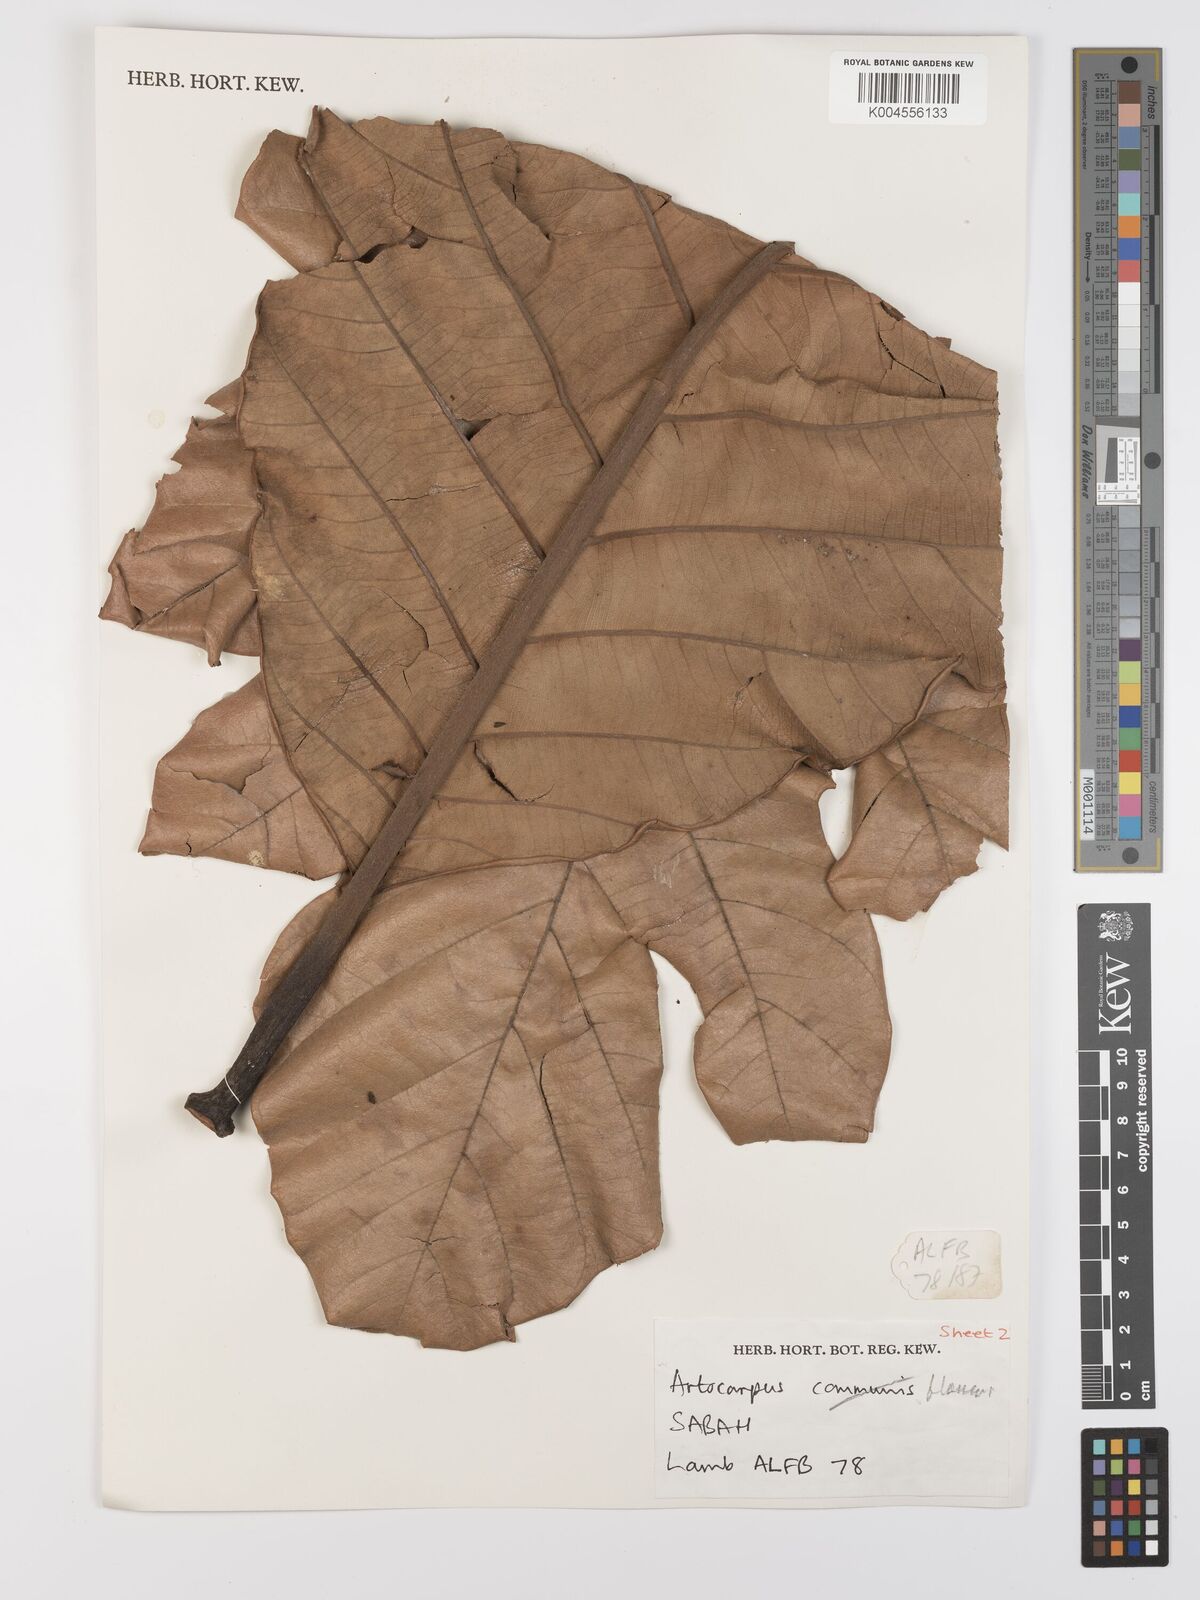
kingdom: Plantae
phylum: Tracheophyta
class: Magnoliopsida
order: Rosales
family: Moraceae
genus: Artocarpus
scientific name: Artocarpus altilis
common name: Breadfruit
